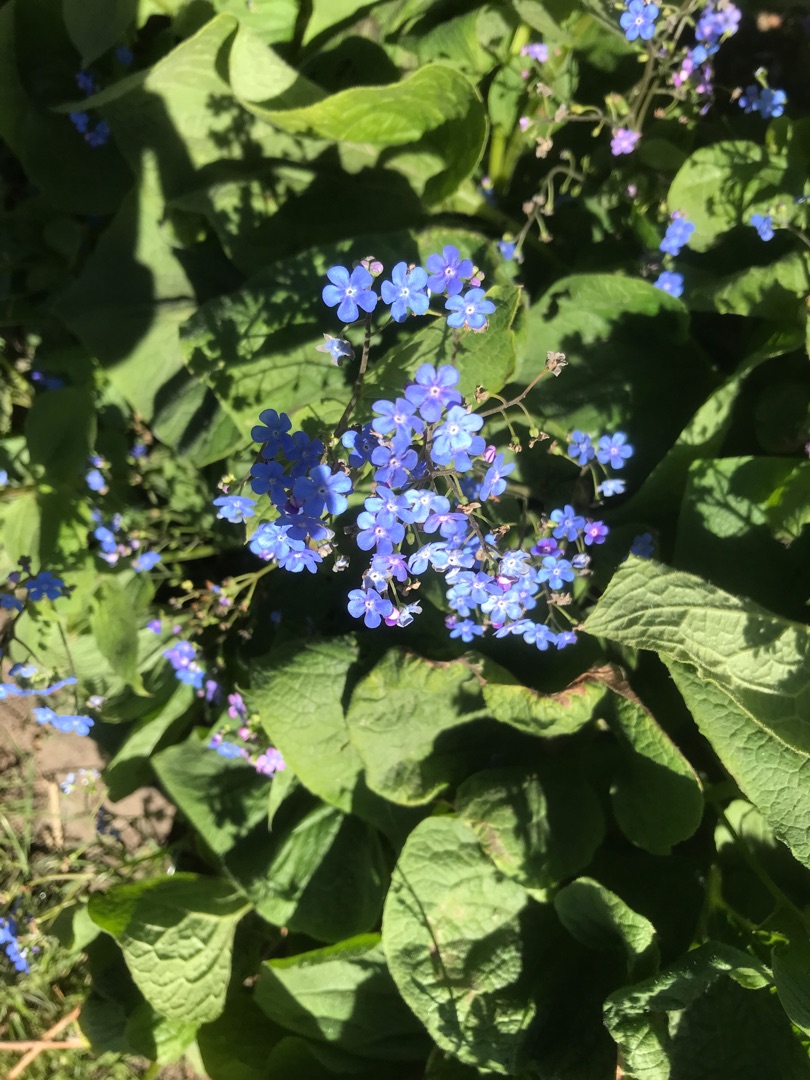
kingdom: Plantae
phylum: Tracheophyta
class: Magnoliopsida
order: Boraginales
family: Boraginaceae
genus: Brunnera
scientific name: Brunnera macrophylla
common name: Kærmindesøster
